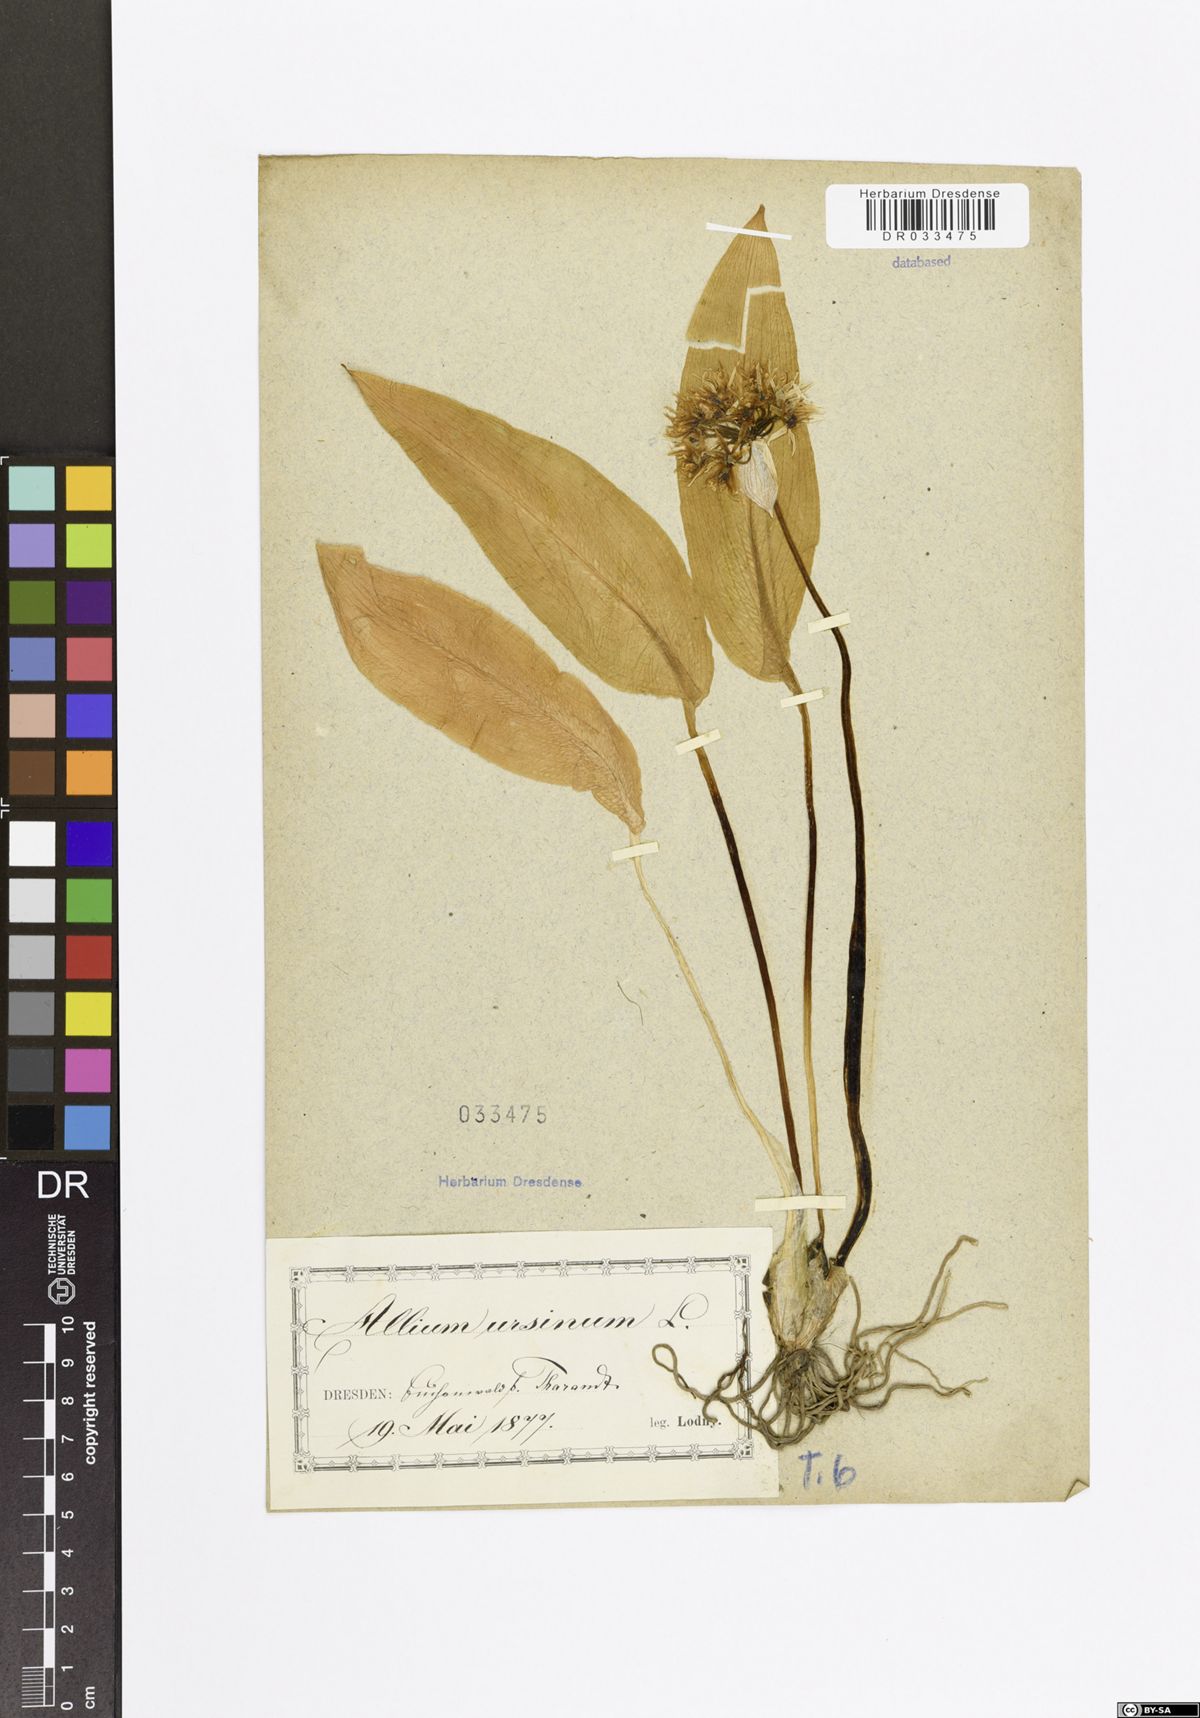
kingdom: Plantae
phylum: Tracheophyta
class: Liliopsida
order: Asparagales
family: Amaryllidaceae
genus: Allium
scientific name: Allium ursinum
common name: Ramsons
